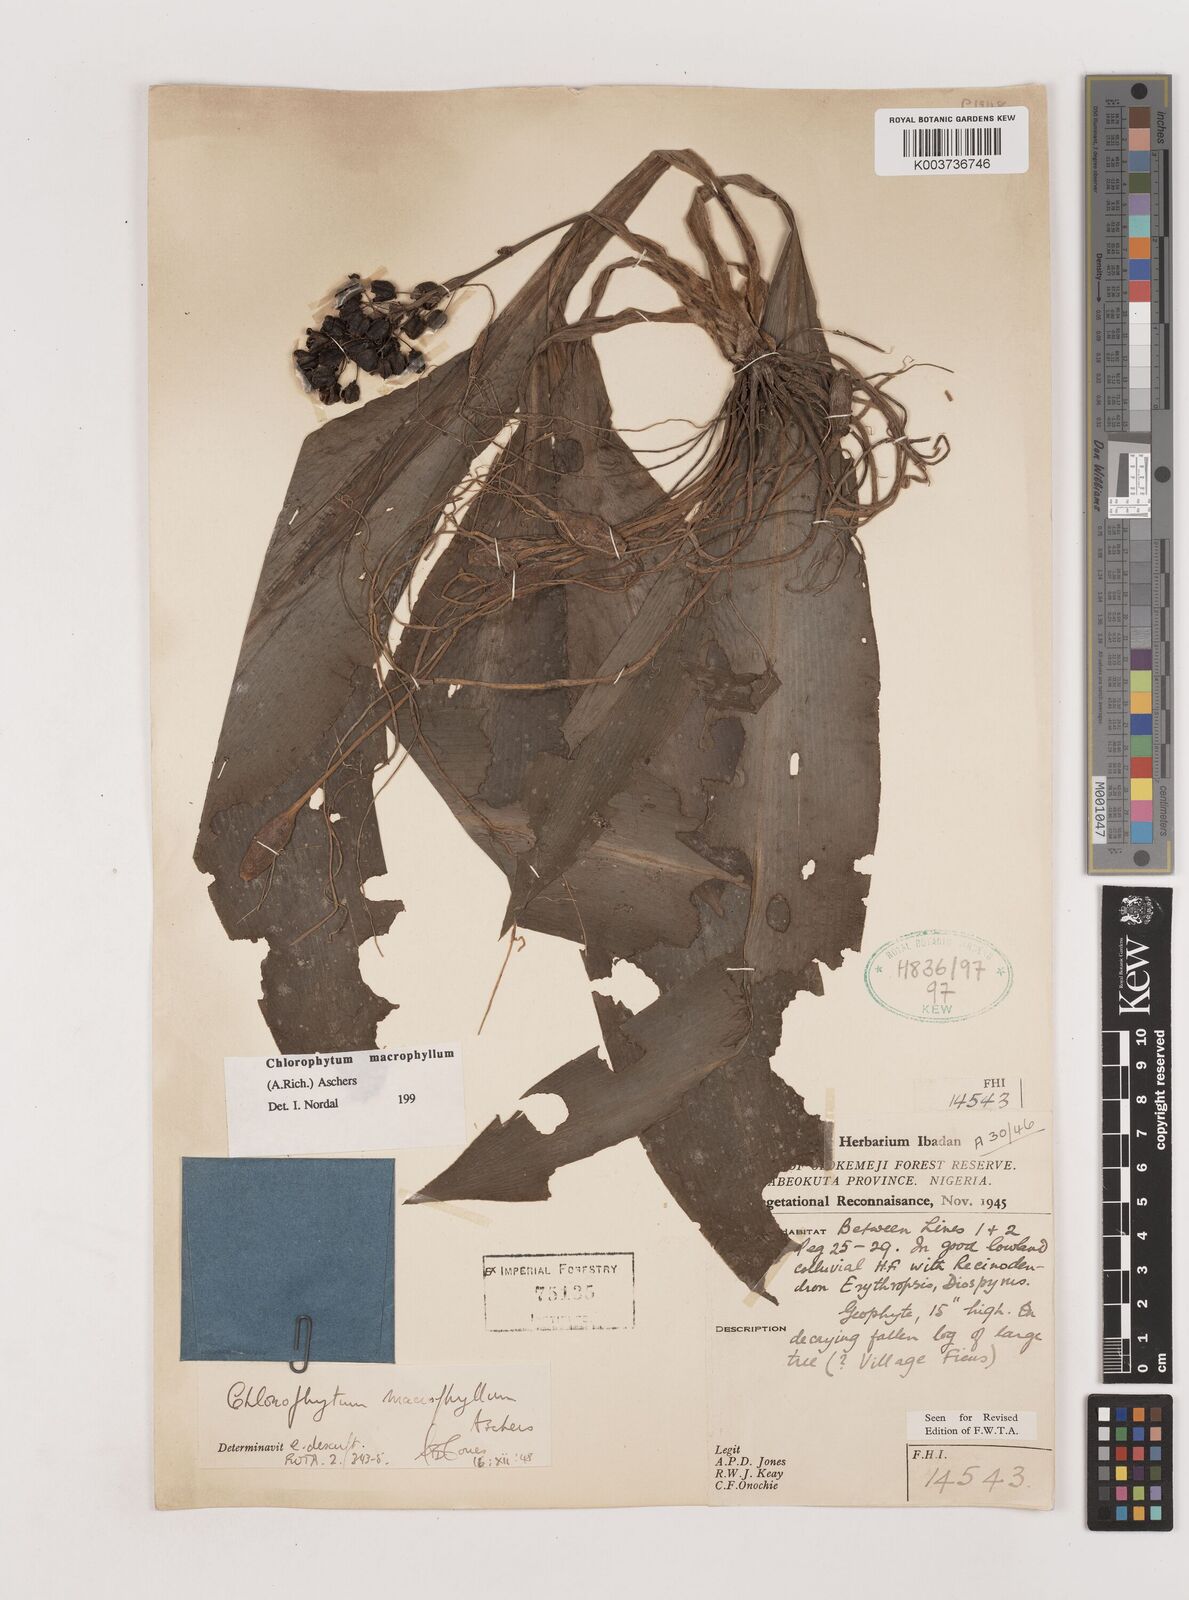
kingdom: Plantae
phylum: Tracheophyta
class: Liliopsida
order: Asparagales
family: Asparagaceae
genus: Chlorophytum
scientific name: Chlorophytum macrophyllum
